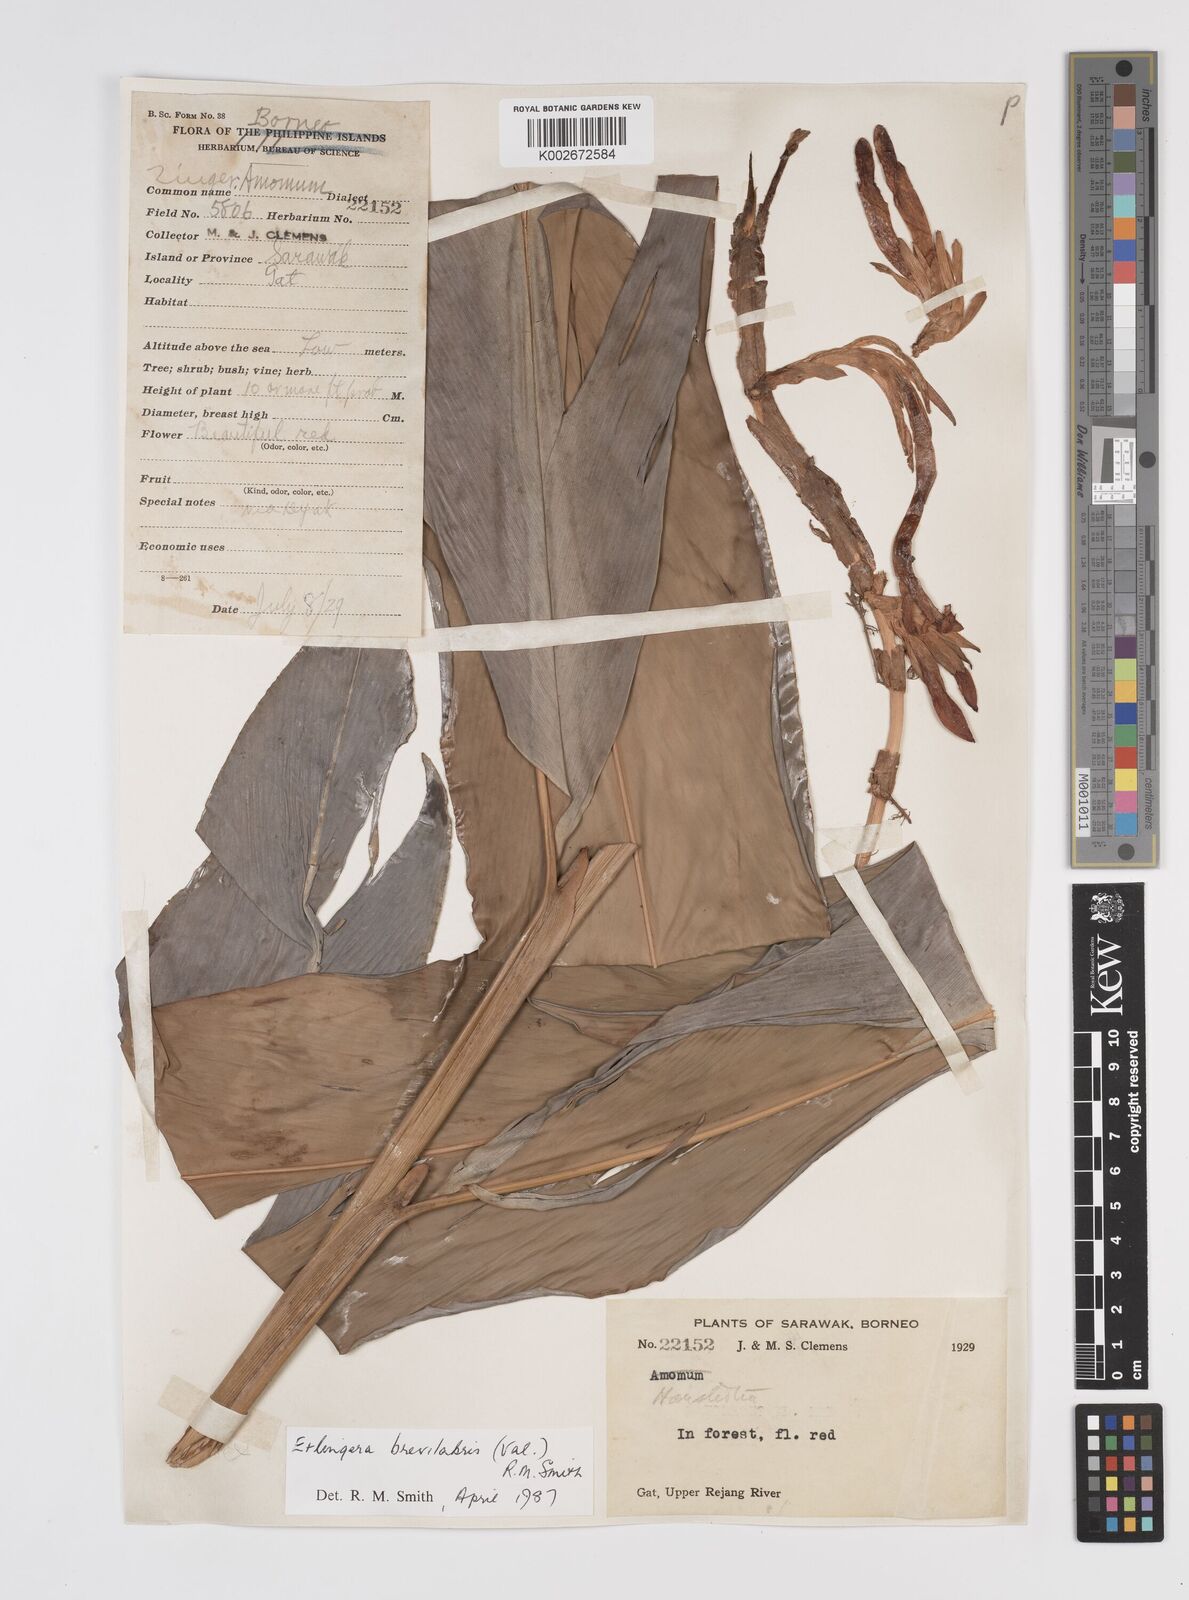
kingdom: Plantae
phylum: Tracheophyta
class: Liliopsida
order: Zingiberales
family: Zingiberaceae
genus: Etlingera
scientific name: Etlingera
